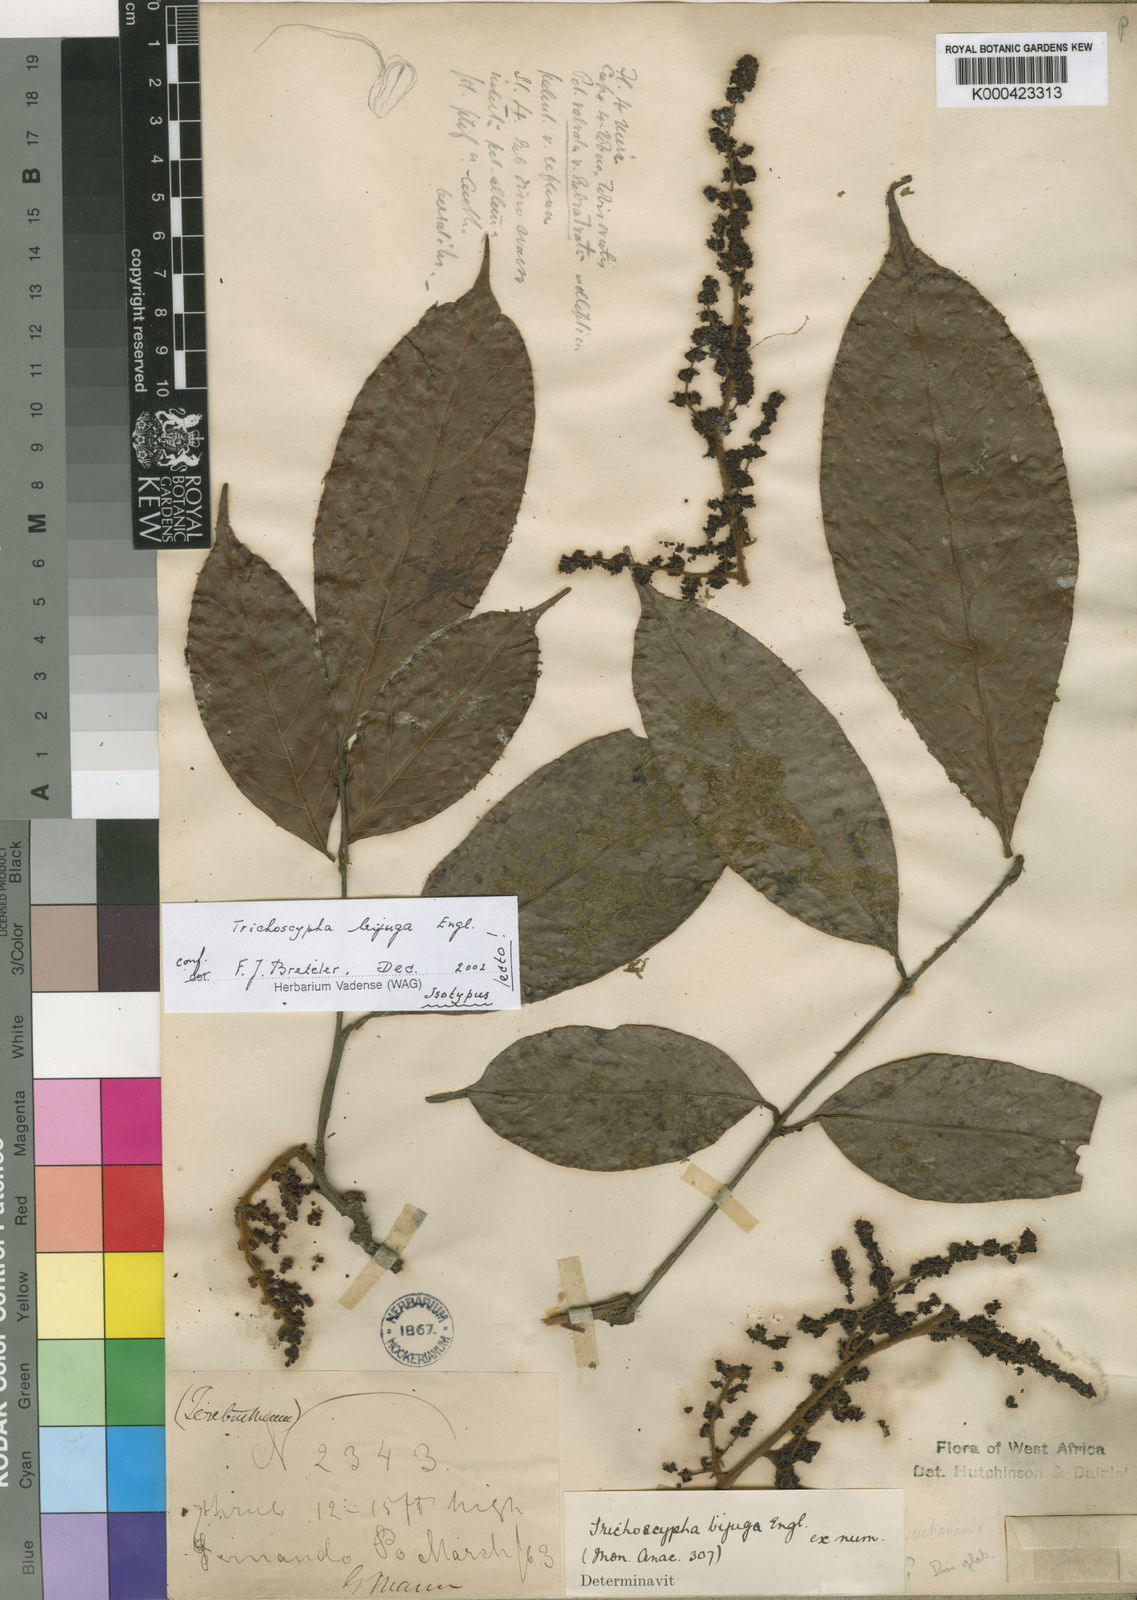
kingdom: Plantae
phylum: Tracheophyta
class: Magnoliopsida
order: Sapindales
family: Anacardiaceae
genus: Trichoscypha
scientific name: Trichoscypha bijuga
